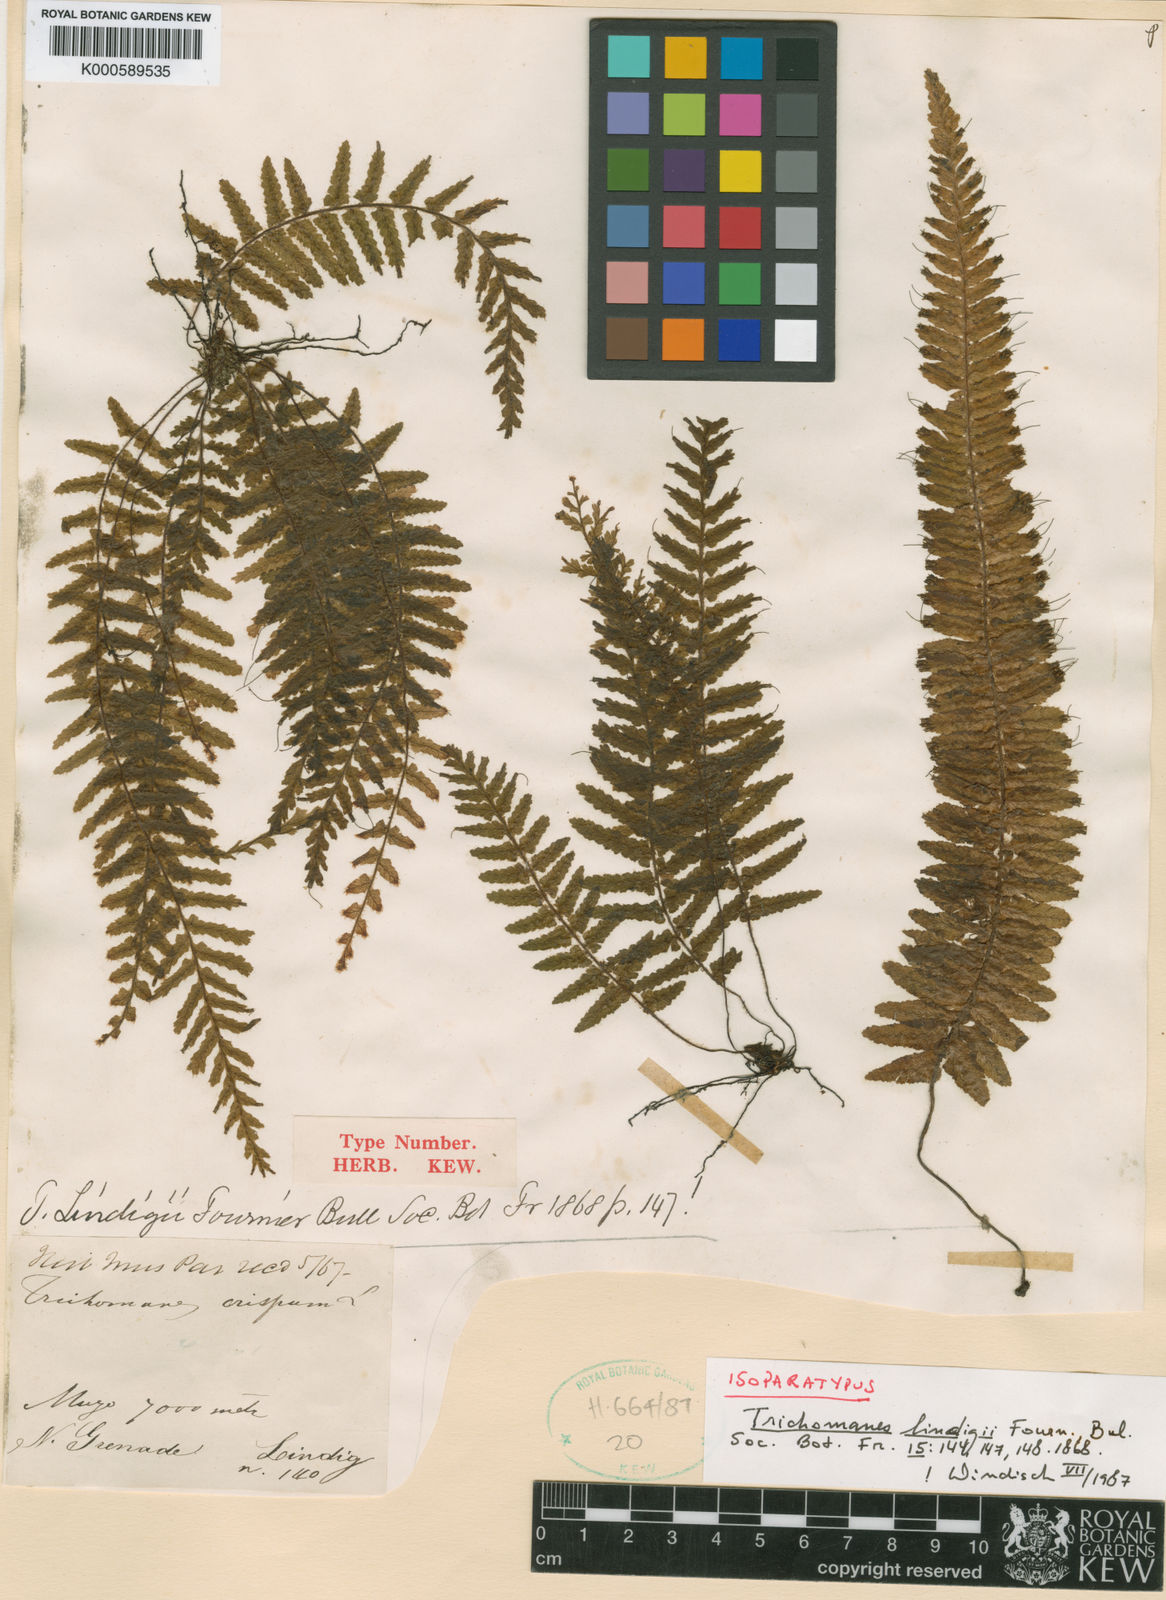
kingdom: Plantae
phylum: Tracheophyta
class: Polypodiopsida
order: Hymenophyllales
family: Hymenophyllaceae
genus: Trichomanes
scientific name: Trichomanes crispum
